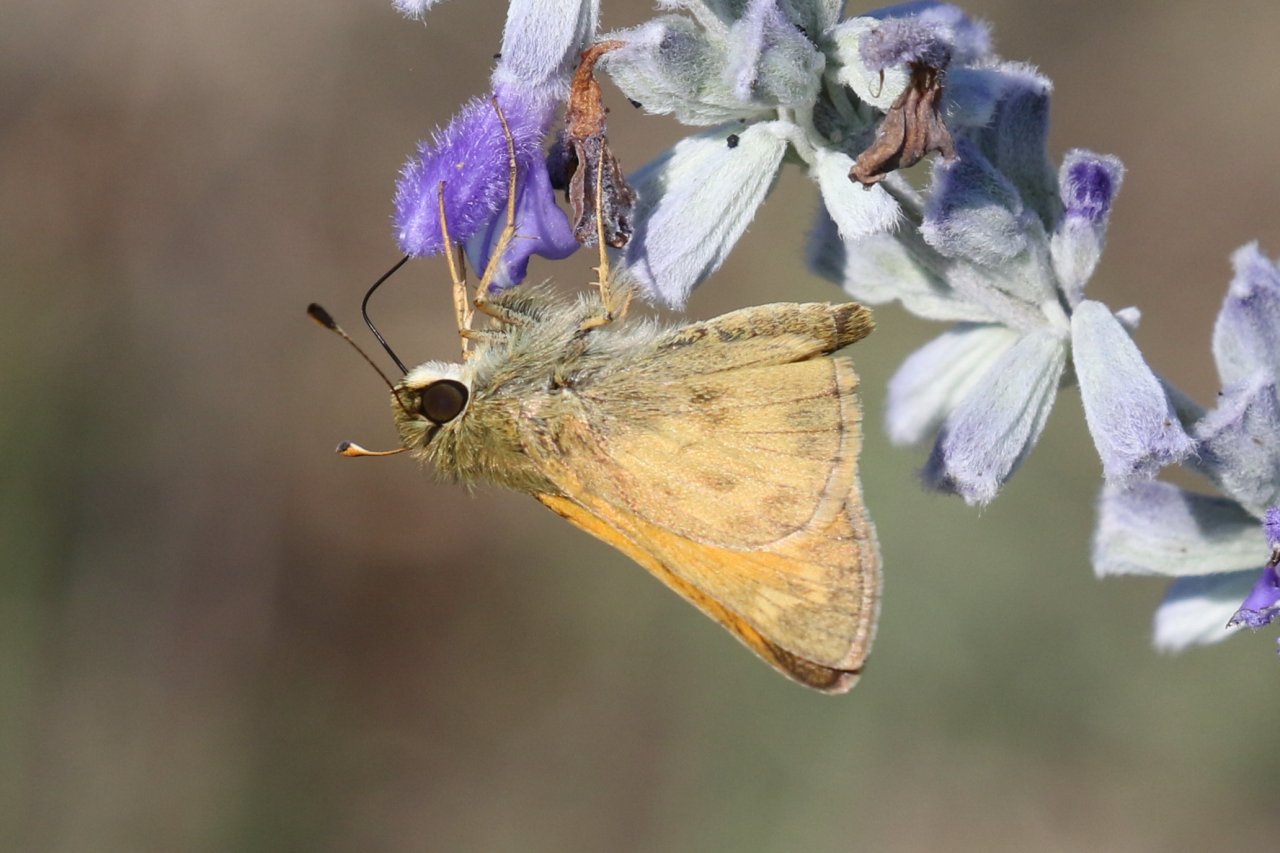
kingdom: Animalia
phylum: Arthropoda
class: Insecta
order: Lepidoptera
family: Hesperiidae
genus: Atalopedes
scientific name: Atalopedes campestris
